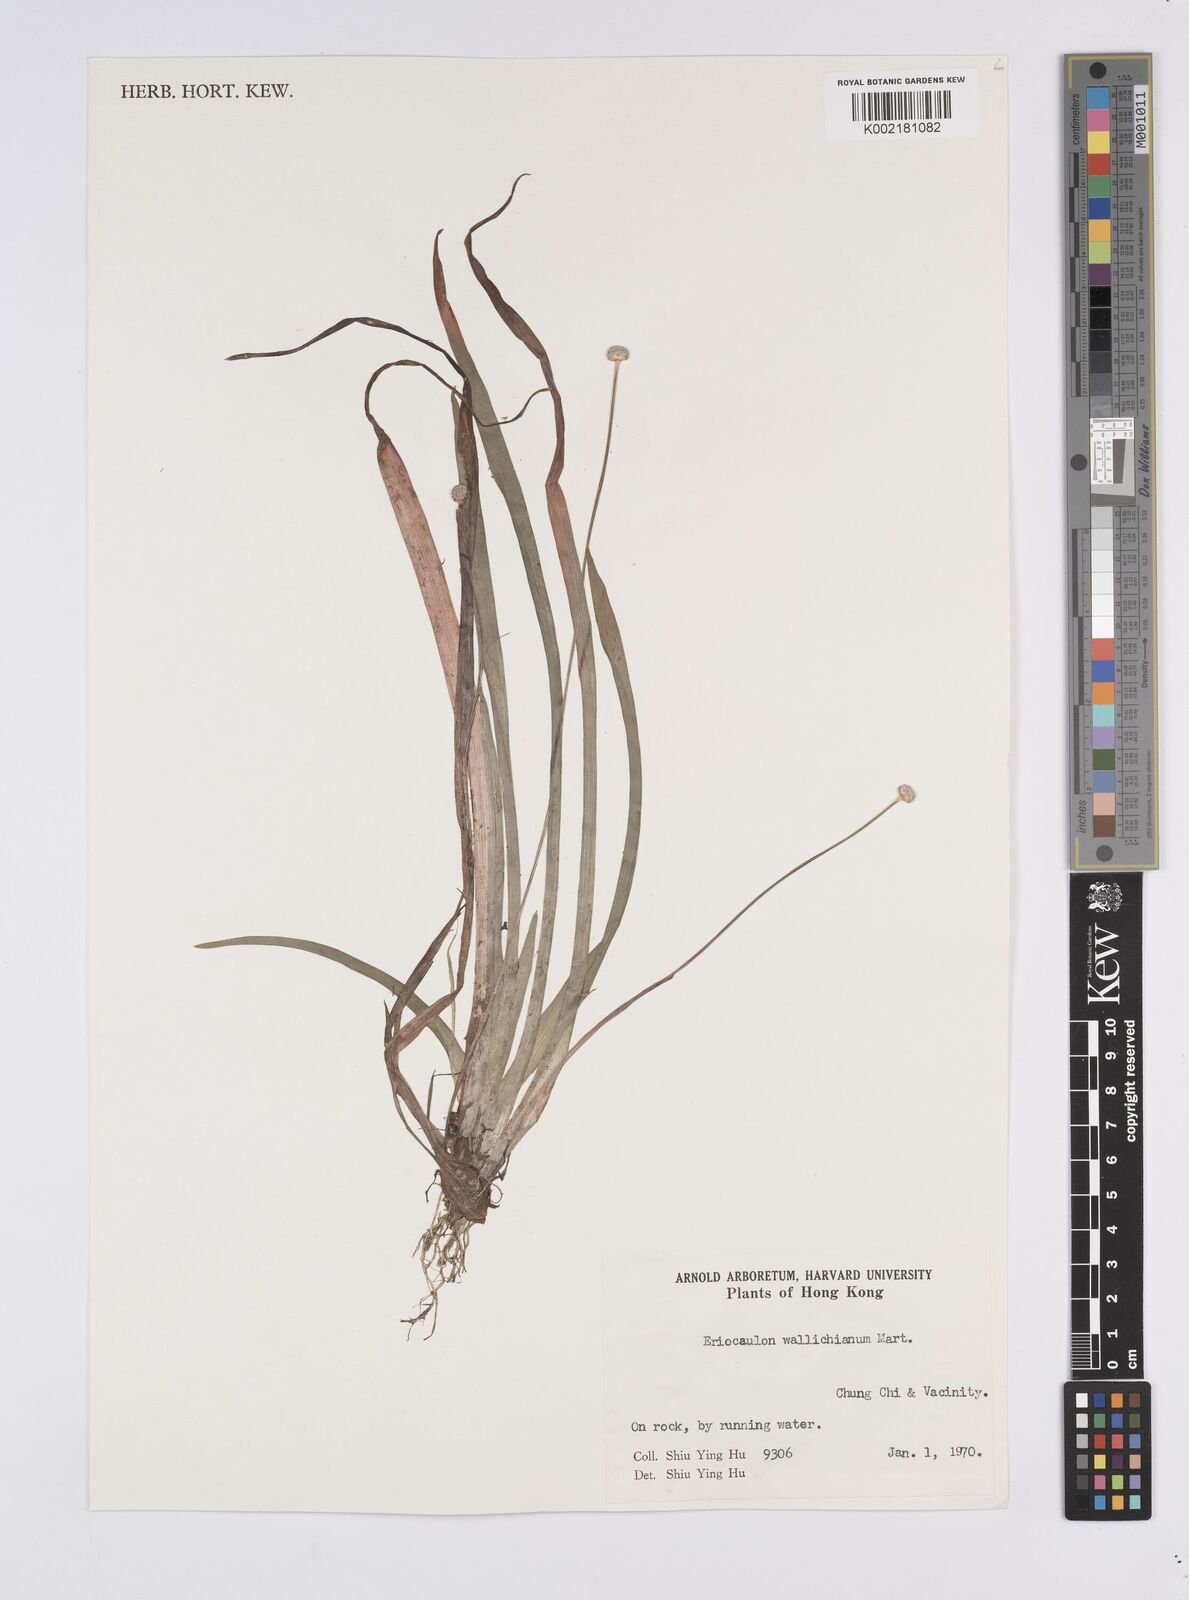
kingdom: Plantae
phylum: Tracheophyta
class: Liliopsida
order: Poales
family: Eriocaulaceae
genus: Eriocaulon
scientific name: Eriocaulon sexangulare
